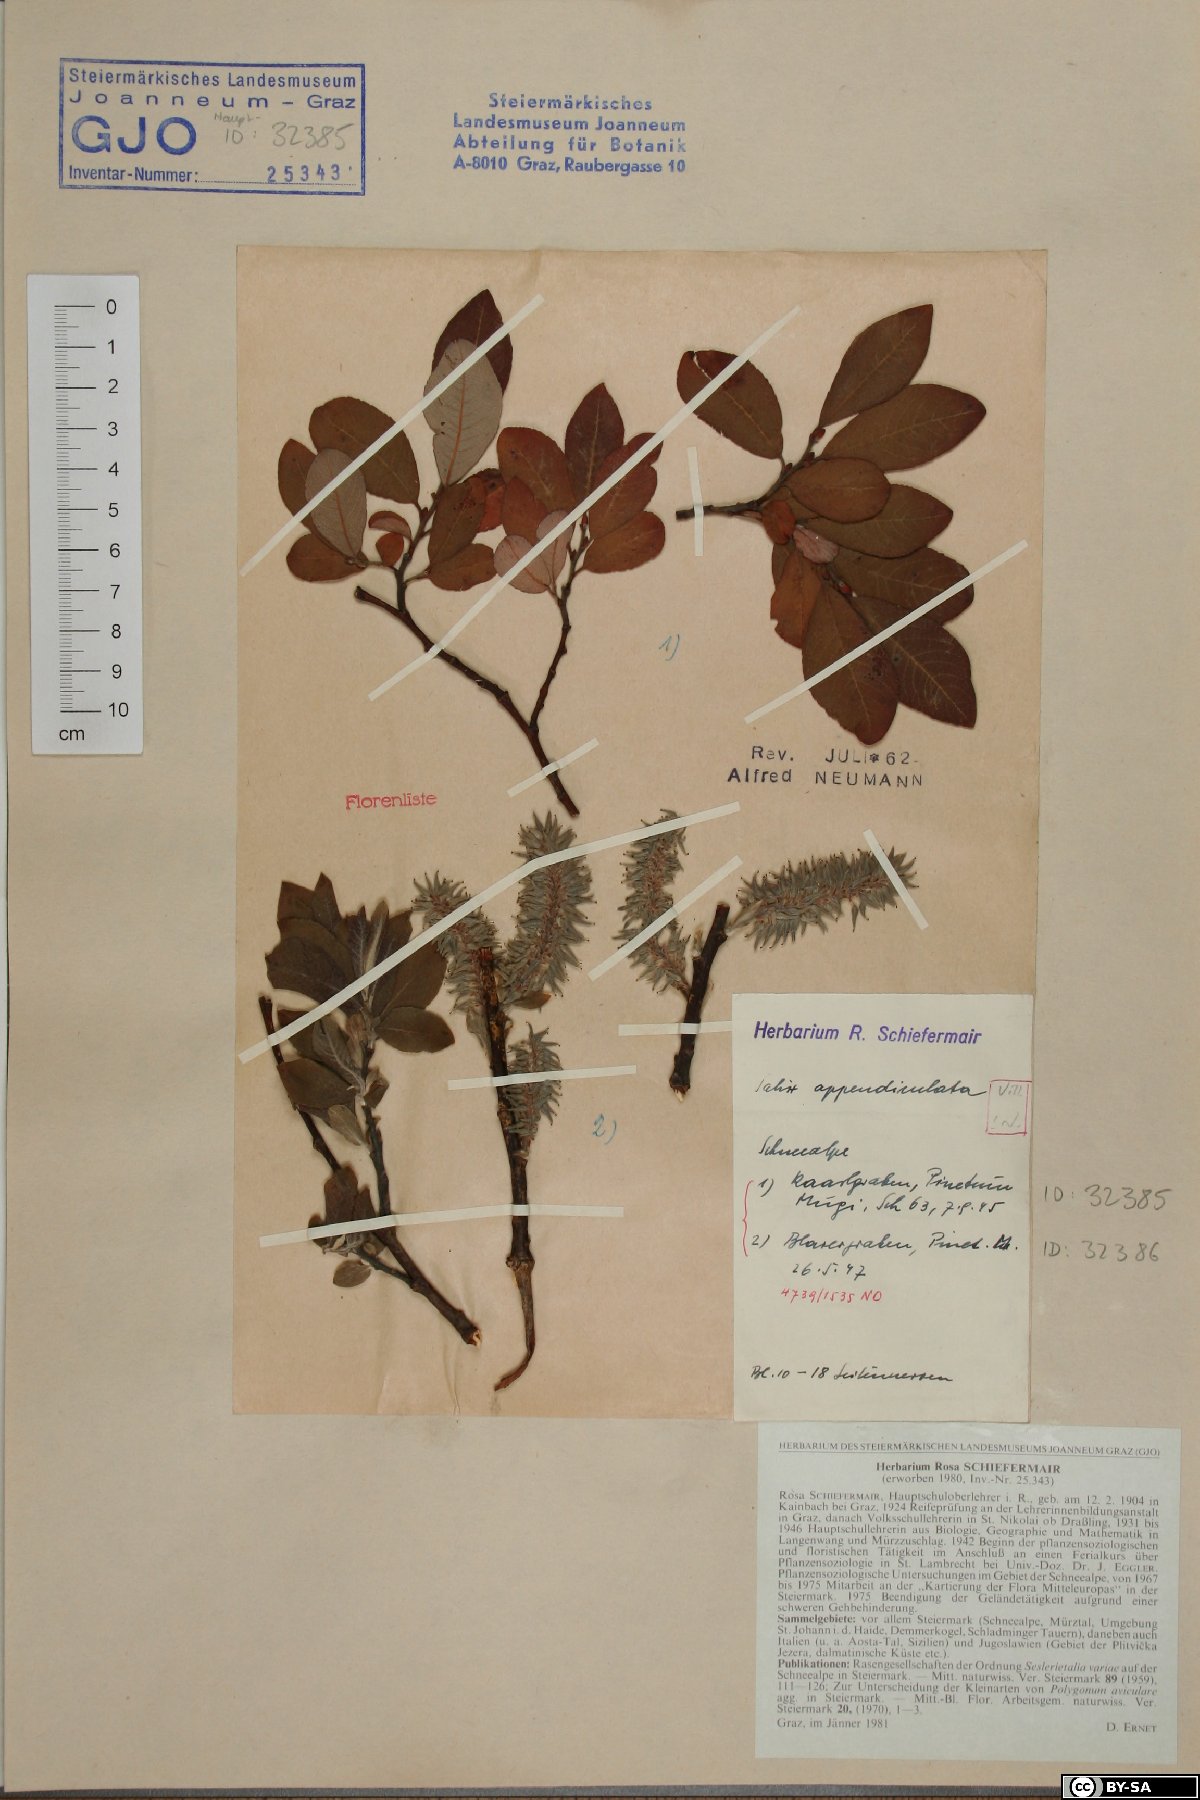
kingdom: Plantae
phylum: Tracheophyta
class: Magnoliopsida
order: Malpighiales
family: Salicaceae
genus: Salix
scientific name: Salix appendiculata
